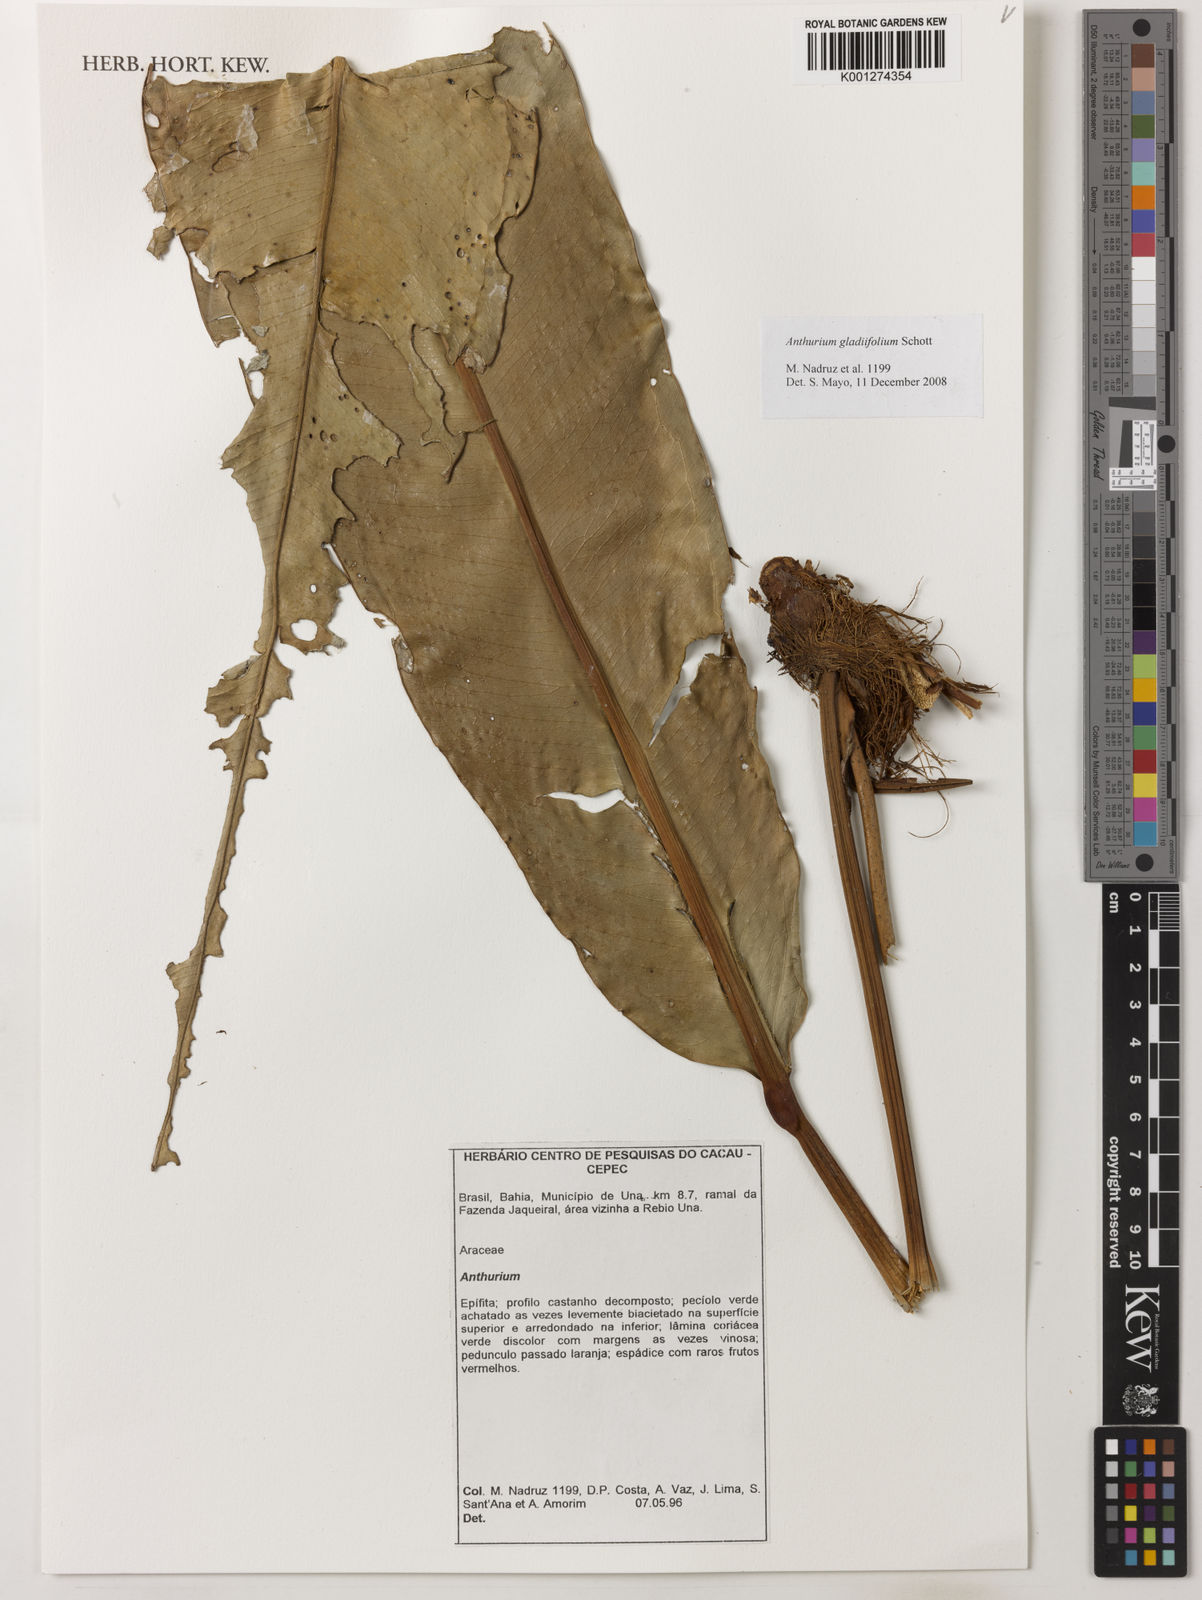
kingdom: Plantae
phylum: Tracheophyta
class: Liliopsida
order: Alismatales
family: Araceae
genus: Anthurium
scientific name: Anthurium gladiifolium
